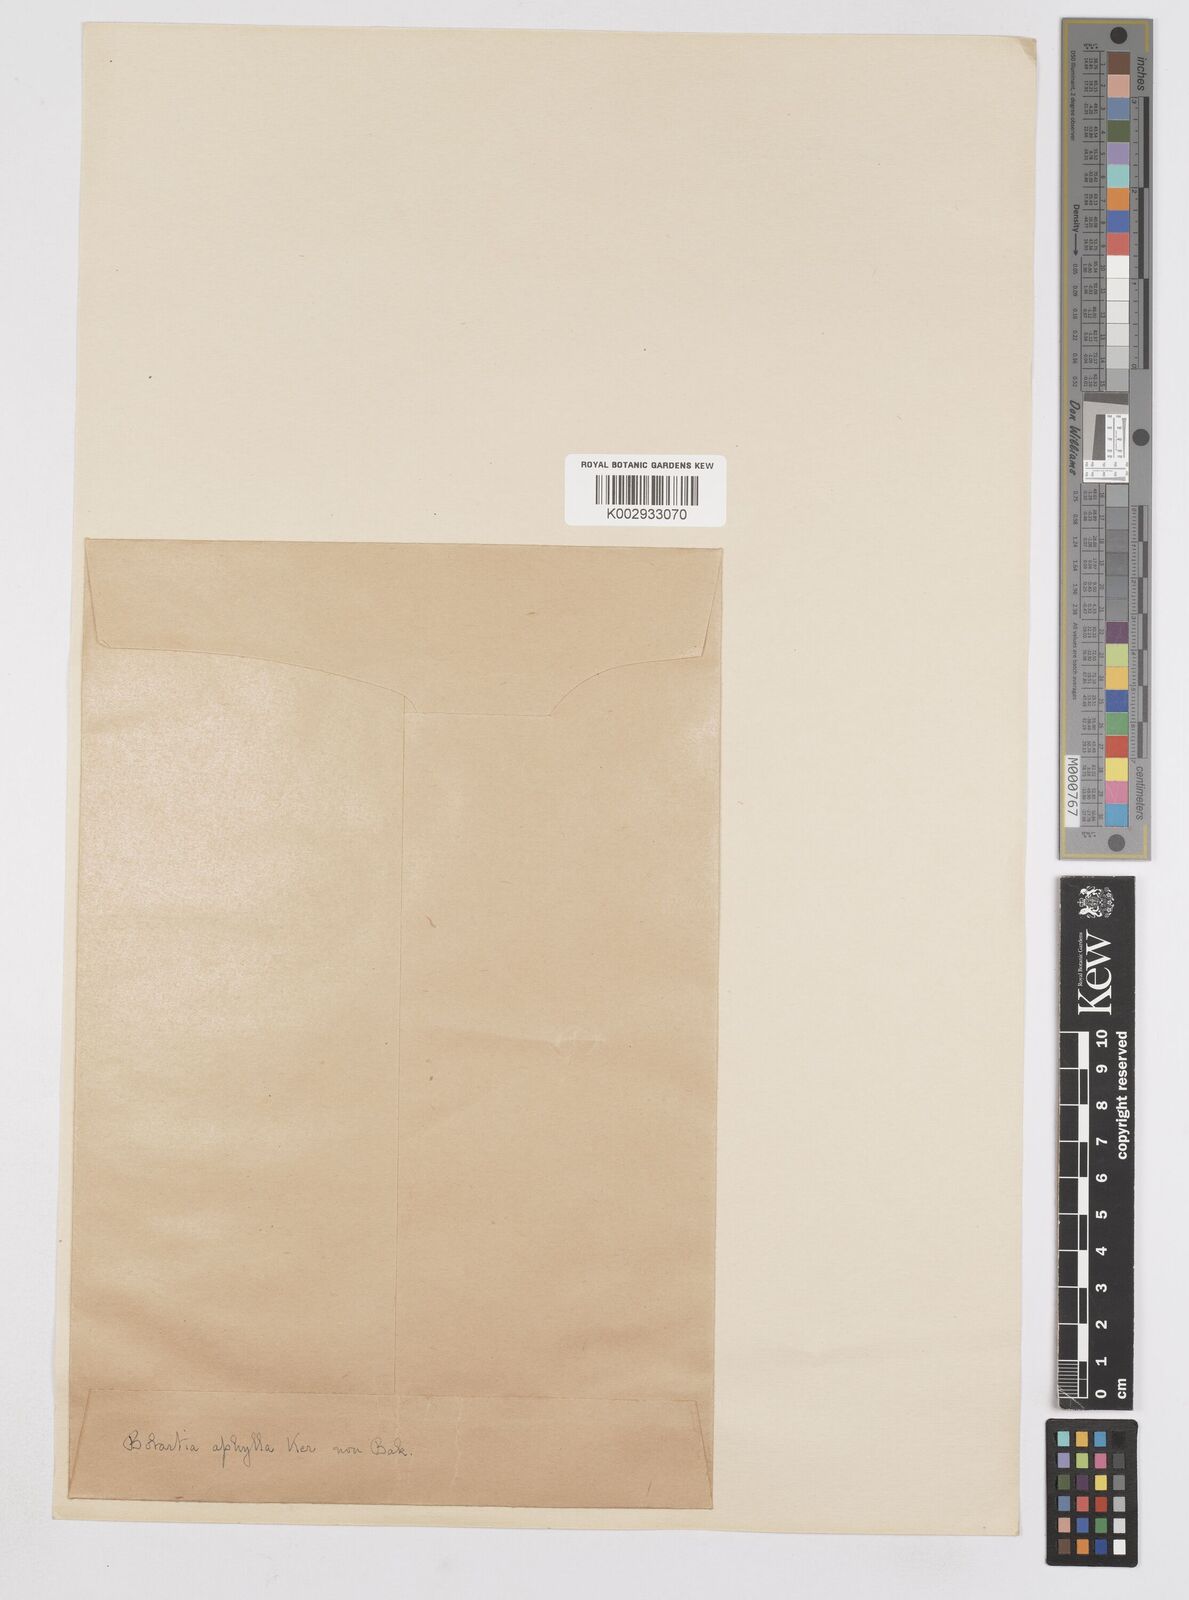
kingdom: Plantae
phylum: Tracheophyta
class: Liliopsida
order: Asparagales
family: Iridaceae
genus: Bobartia
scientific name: Bobartia aphylla
